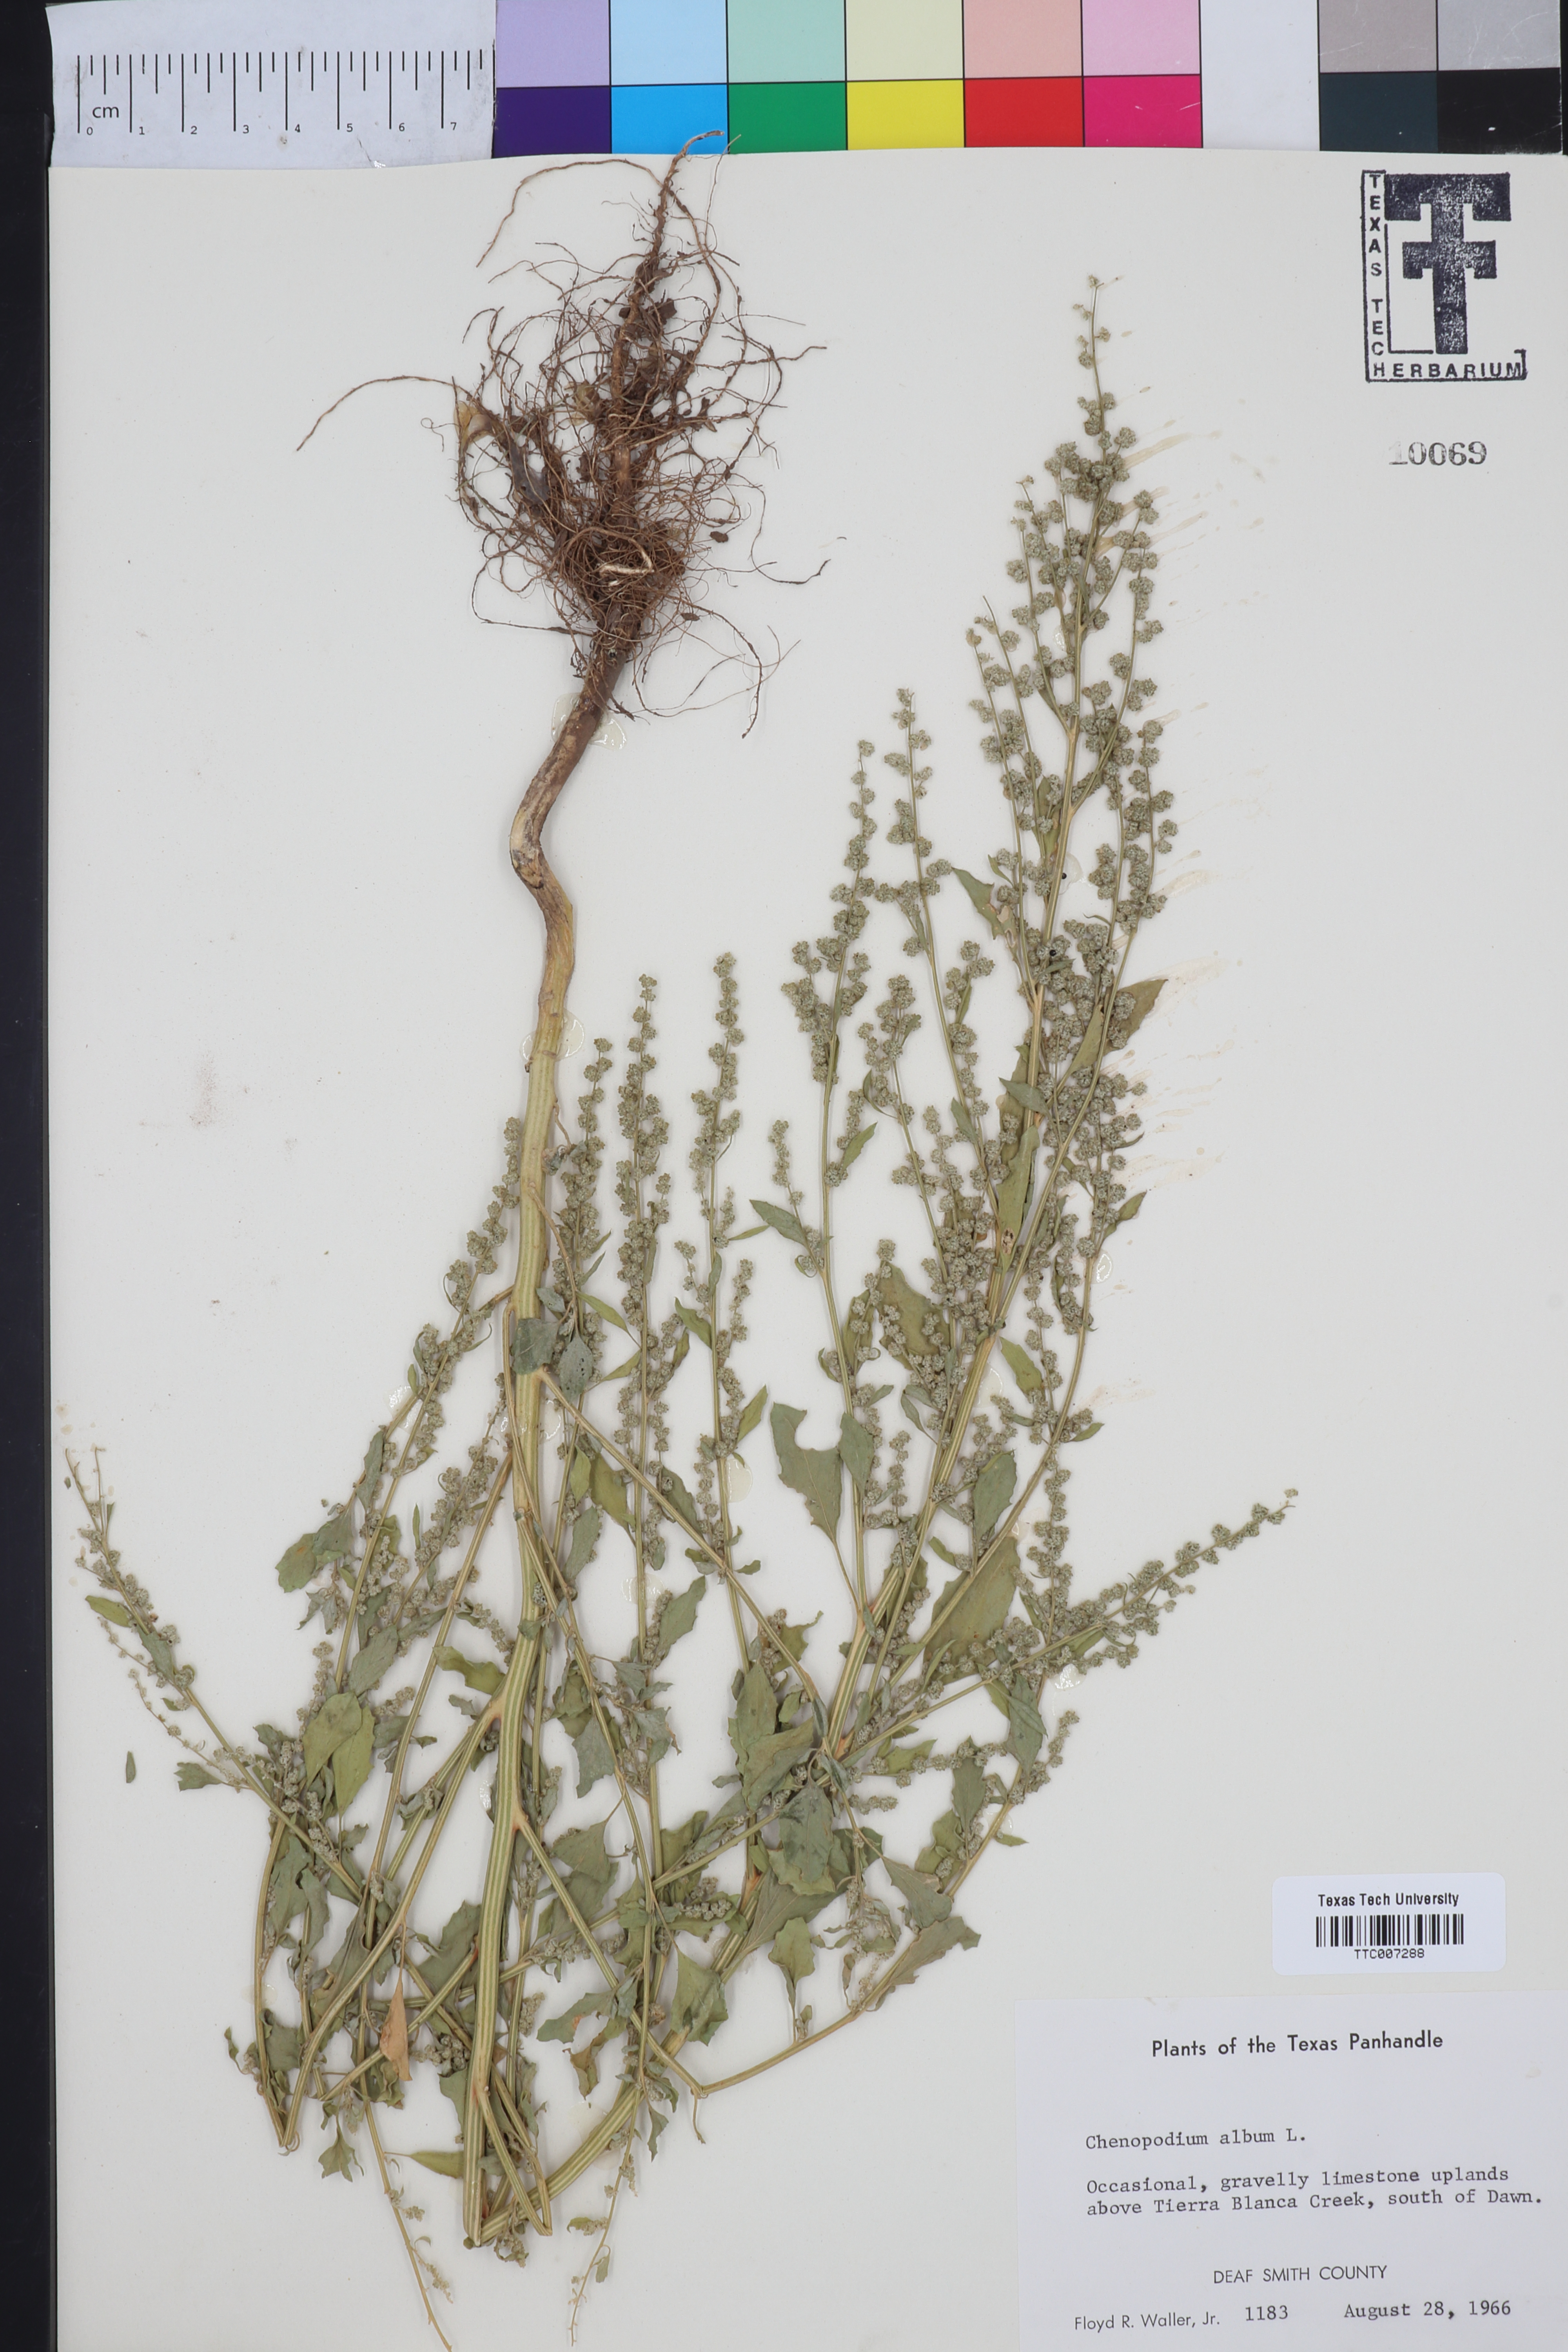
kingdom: Plantae
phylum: Tracheophyta
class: Magnoliopsida
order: Caryophyllales
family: Amaranthaceae
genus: Chenopodium
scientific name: Chenopodium album
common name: Fat-hen
